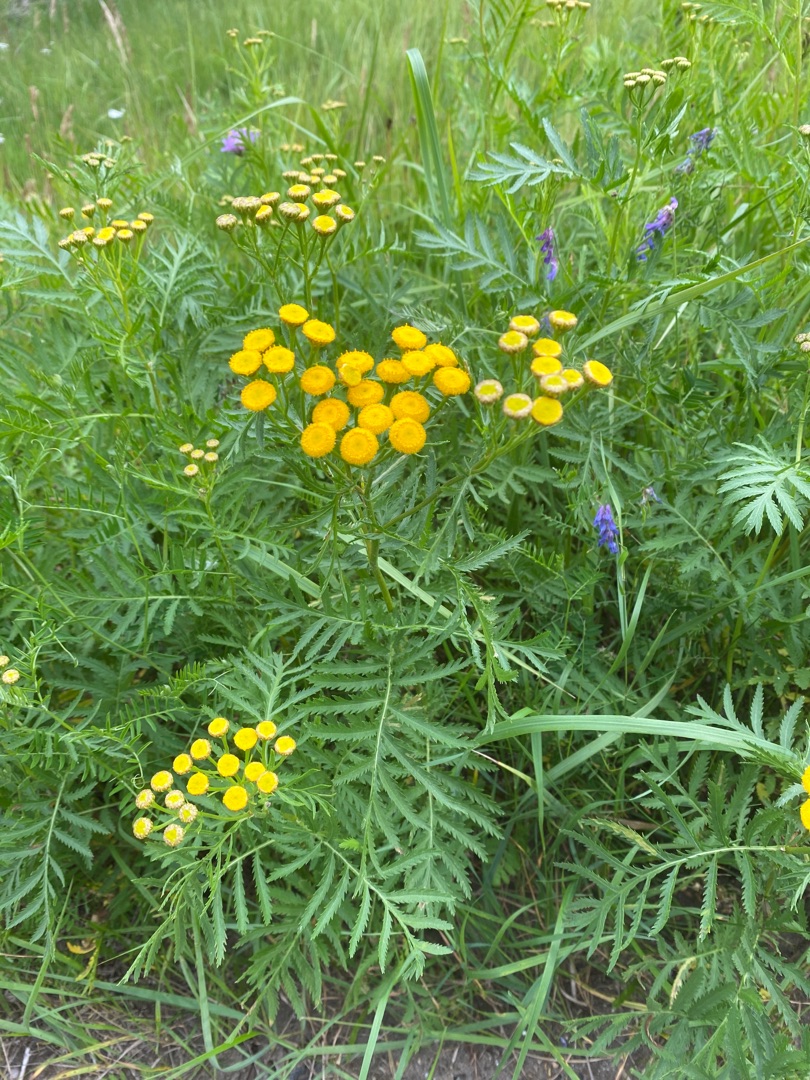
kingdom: Plantae
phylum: Tracheophyta
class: Magnoliopsida
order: Asterales
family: Asteraceae
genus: Tanacetum
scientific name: Tanacetum vulgare
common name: Rejnfan
